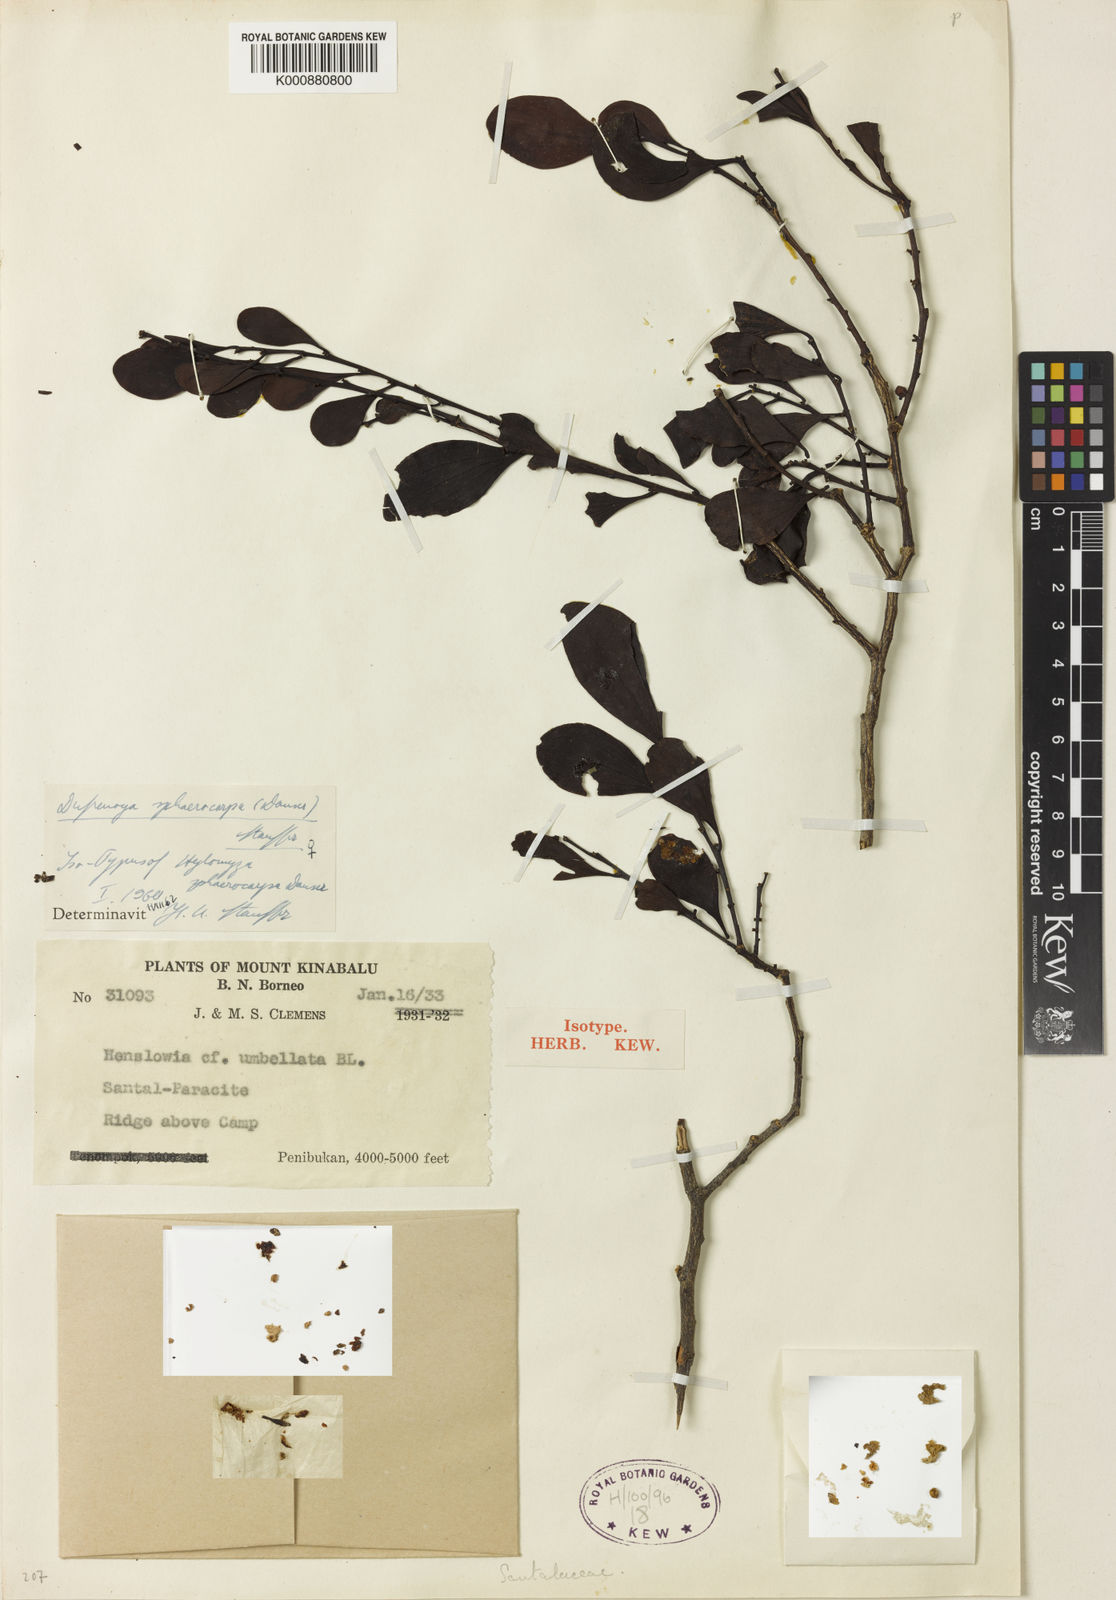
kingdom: Plantae
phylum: Tracheophyta
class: Magnoliopsida
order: Santalales
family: Amphorogynaceae
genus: Dufrenoya
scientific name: Dufrenoya sphaerocarpa
